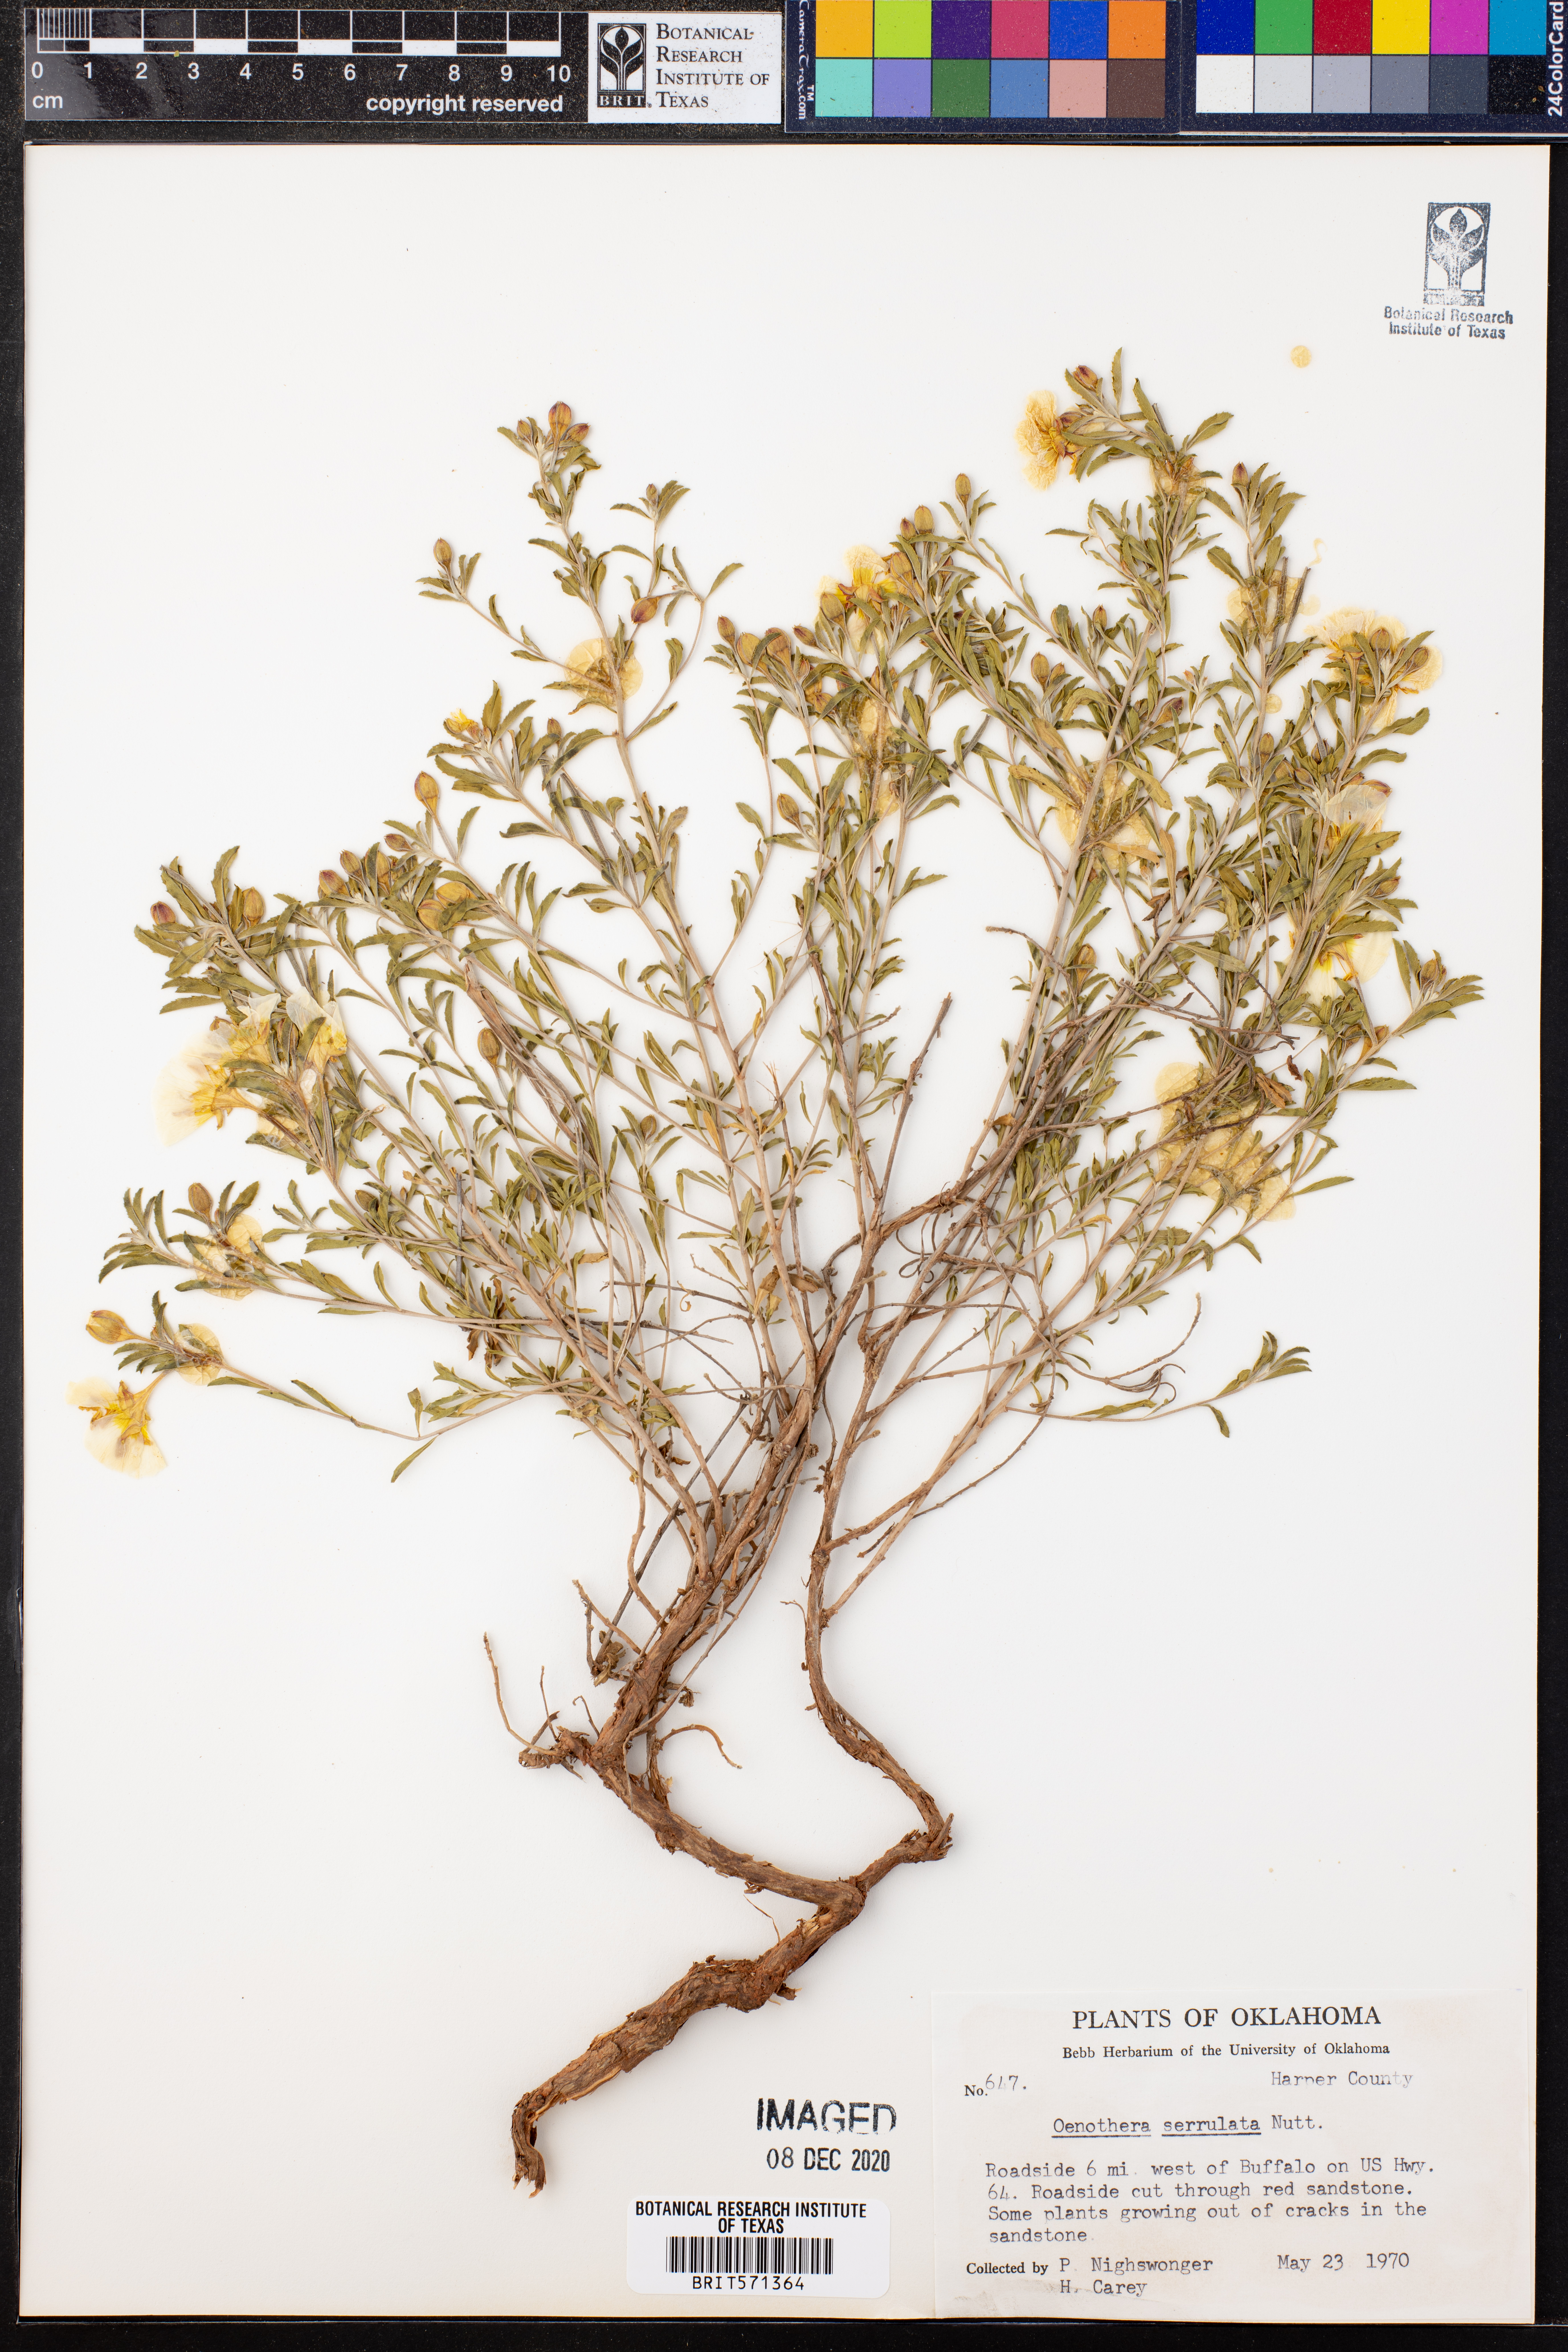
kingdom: Plantae
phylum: Tracheophyta
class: Magnoliopsida
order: Myrtales
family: Onagraceae
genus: Oenothera
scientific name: Oenothera serrulata
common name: Half-shrub calylophus
